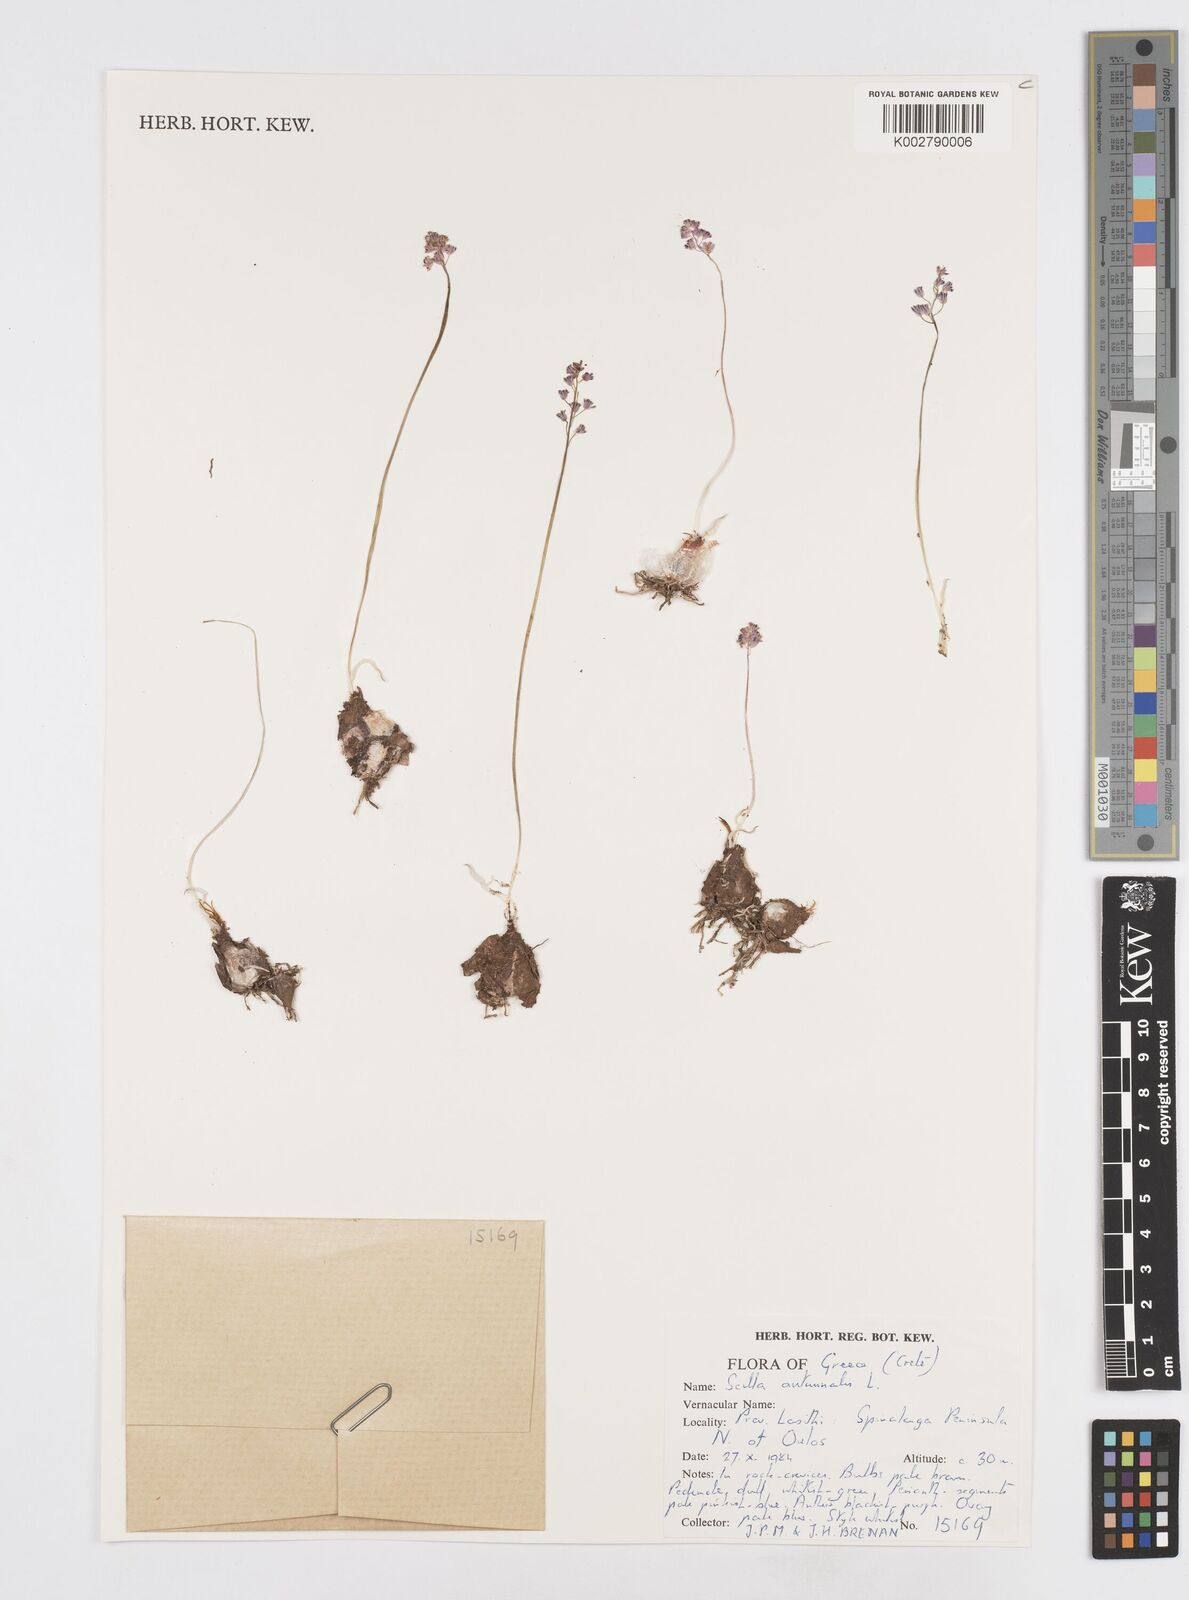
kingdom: Plantae
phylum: Tracheophyta
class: Liliopsida
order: Asparagales
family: Asparagaceae
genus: Prospero
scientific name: Prospero autumnale
